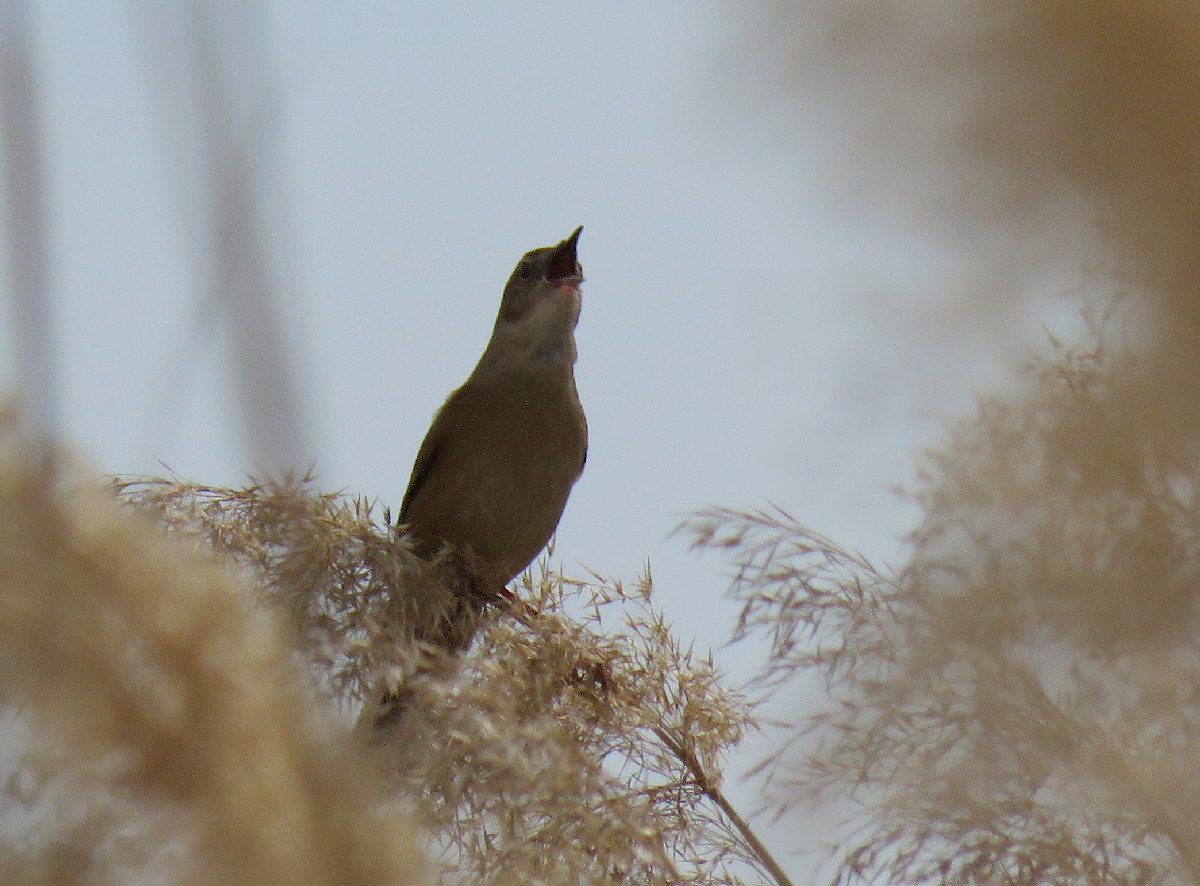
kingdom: Animalia
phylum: Chordata
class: Aves
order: Passeriformes
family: Locustellidae
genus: Locustella
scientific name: Locustella luscinioides
